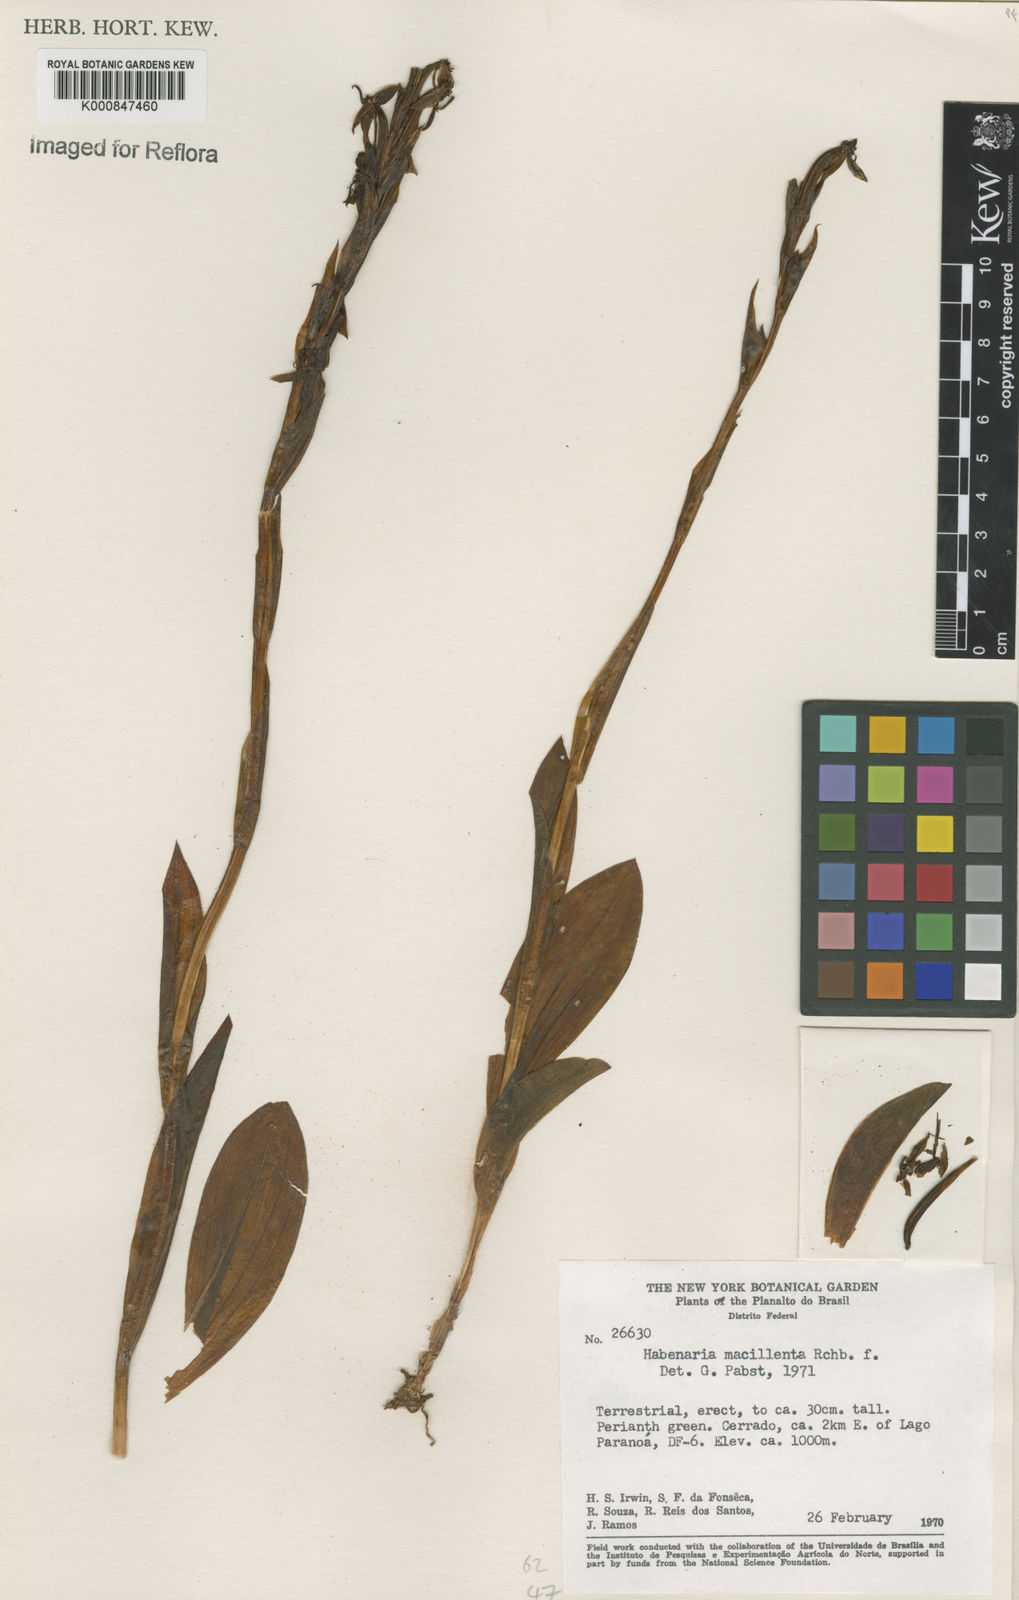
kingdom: Plantae
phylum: Tracheophyta
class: Liliopsida
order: Asparagales
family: Orchidaceae
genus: Habenaria
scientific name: Habenaria macilenta
